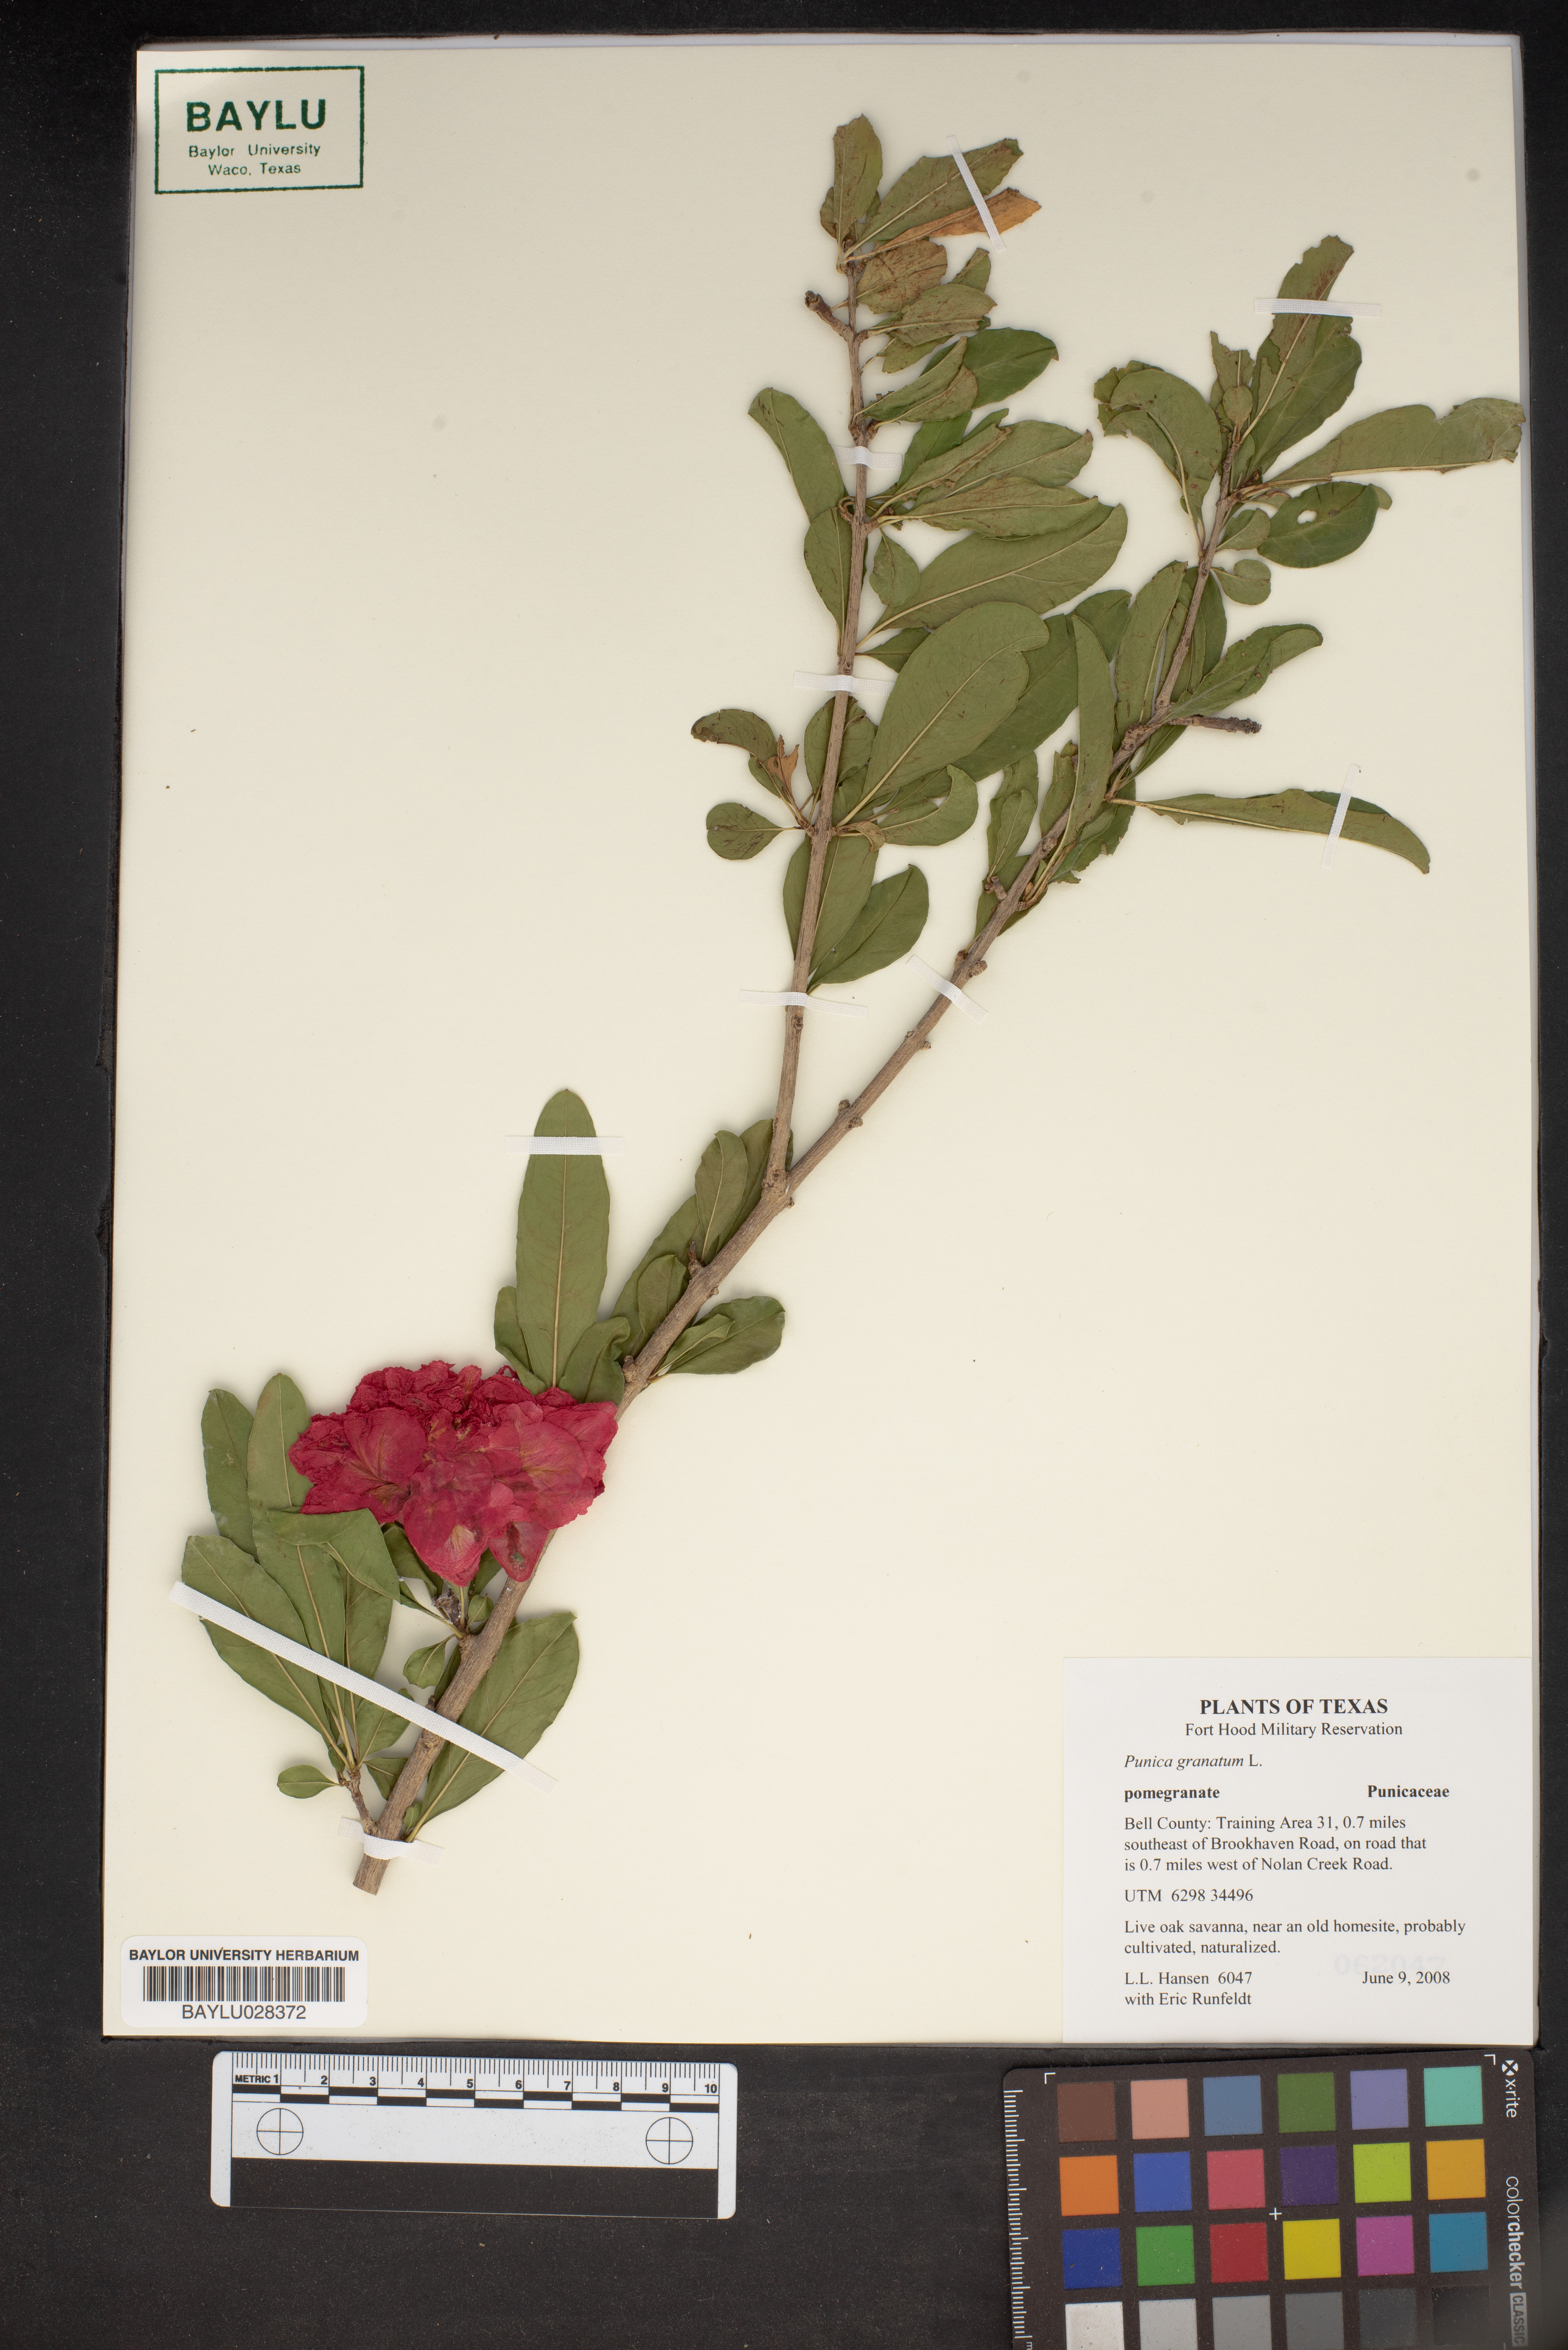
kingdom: Plantae
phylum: Tracheophyta
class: Magnoliopsida
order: Myrtales
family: Lythraceae
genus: Punica
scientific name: Punica granatum
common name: Pomegranate
